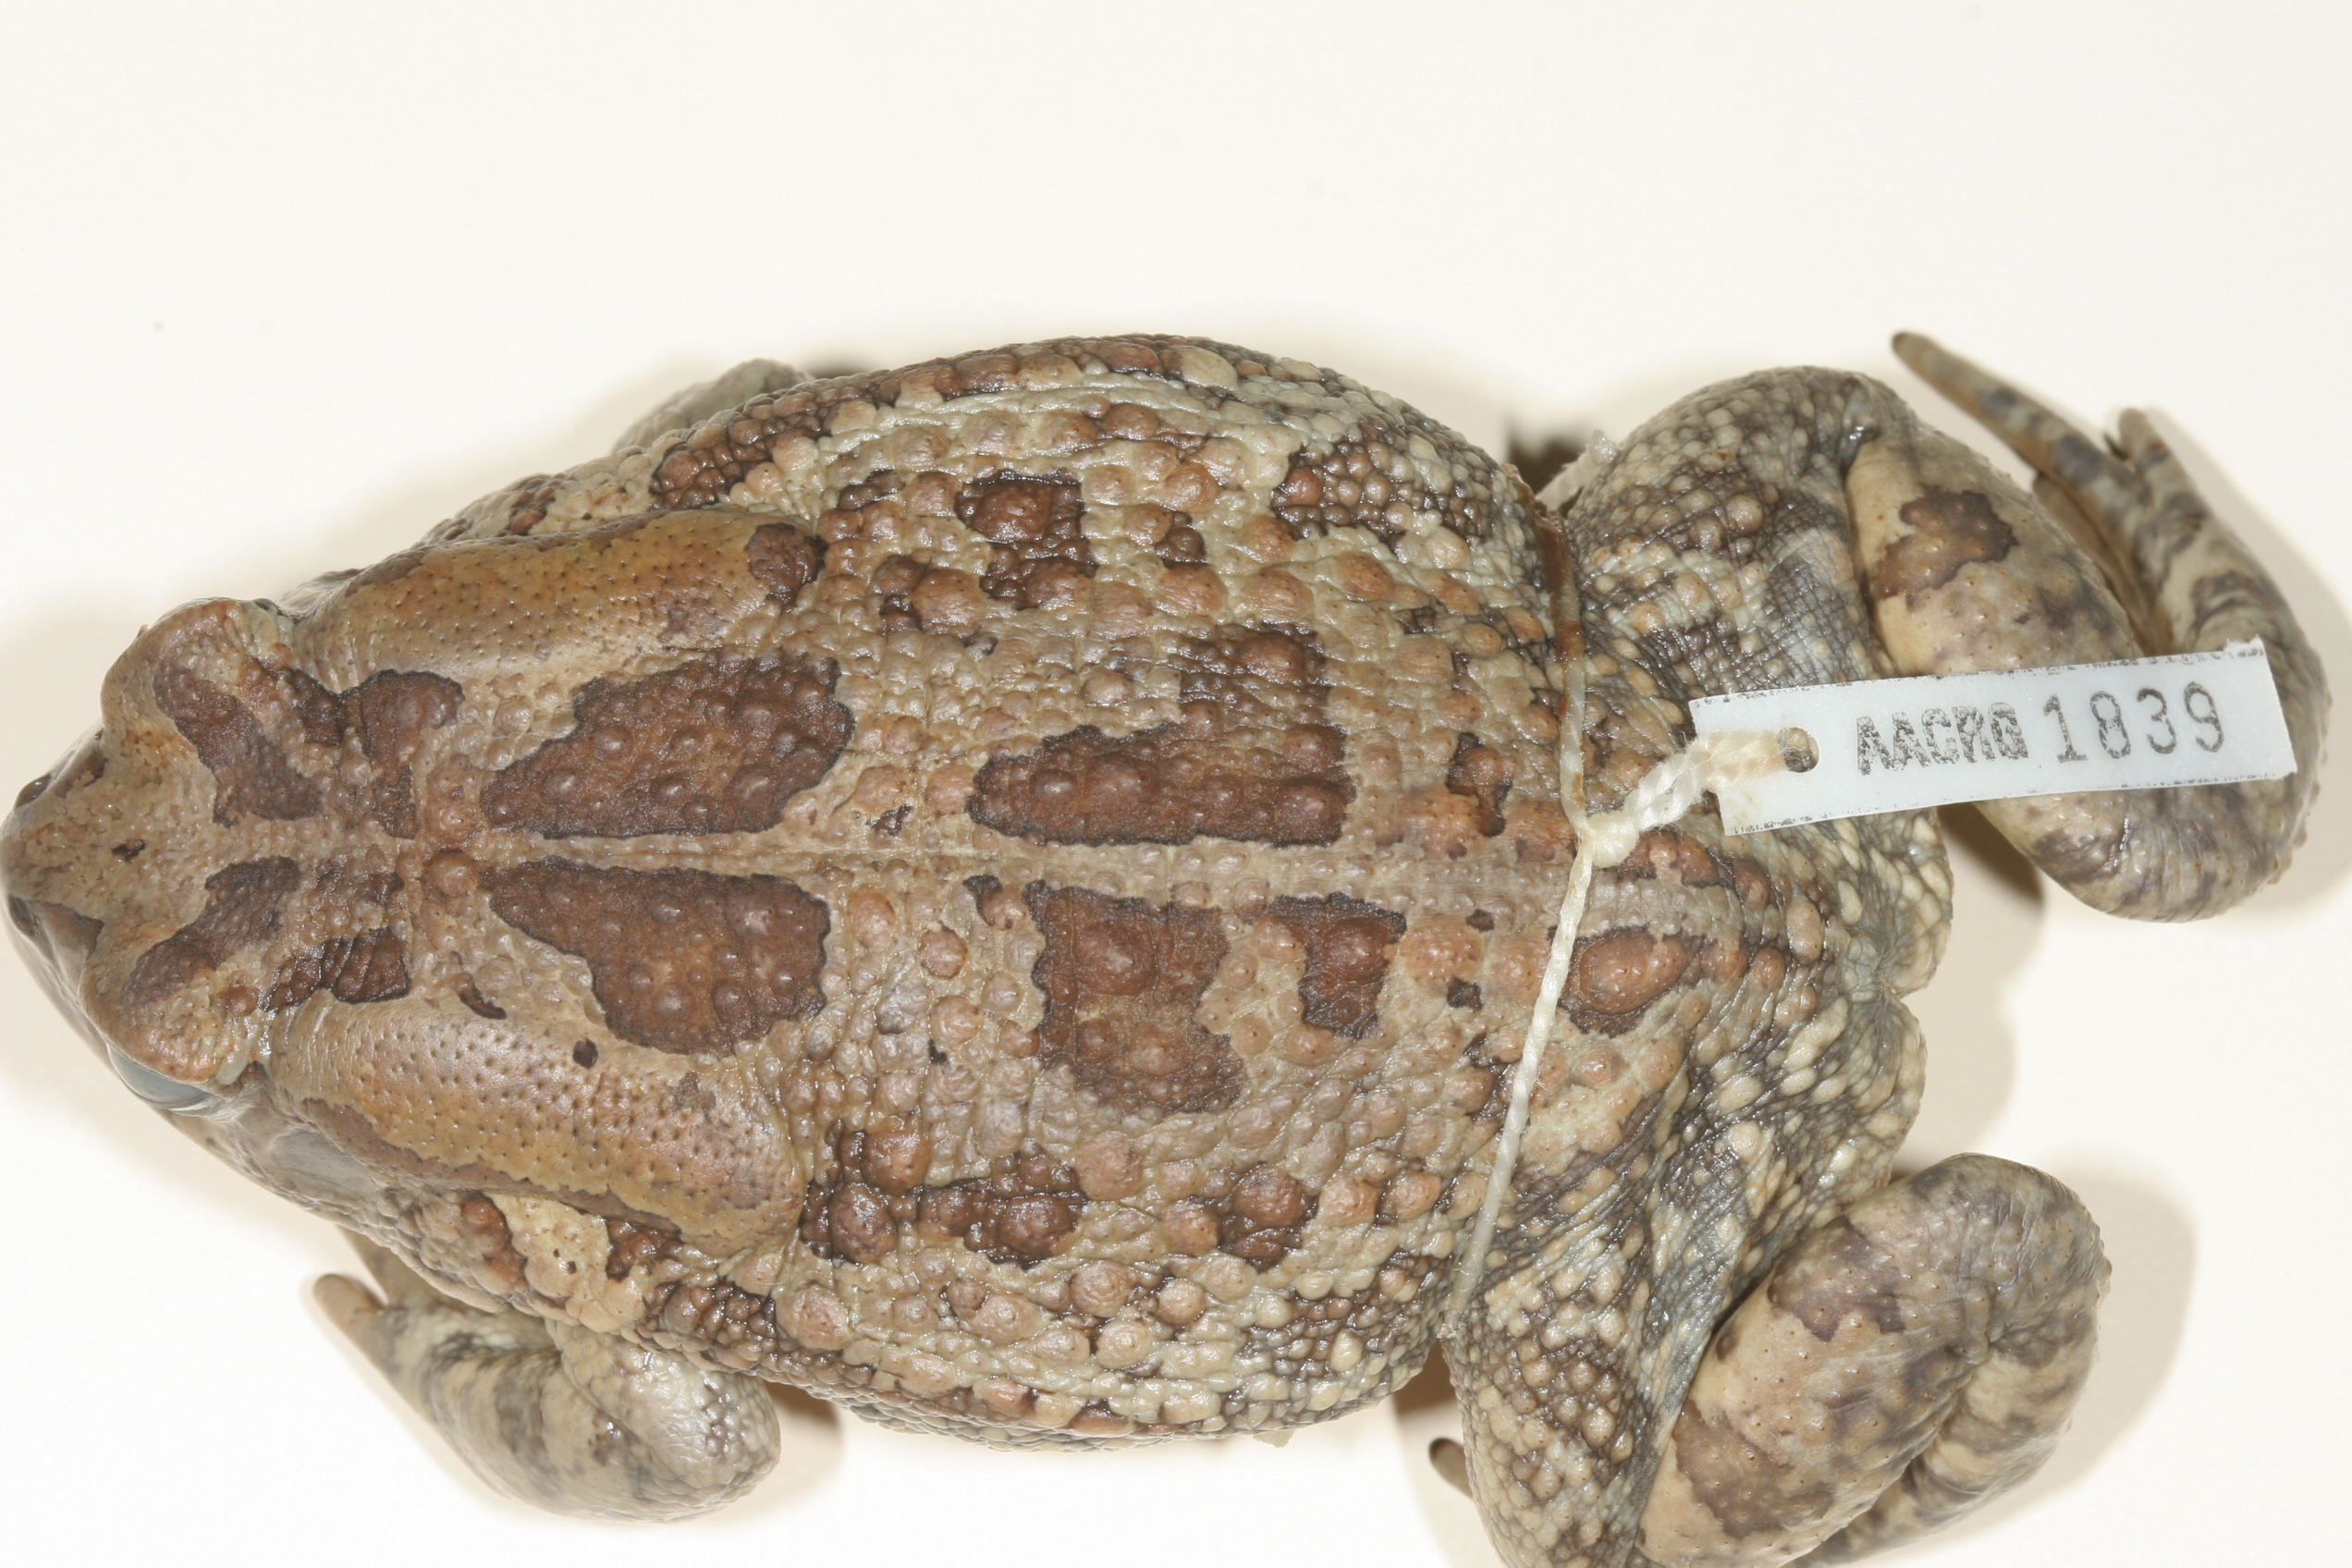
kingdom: Animalia
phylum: Chordata
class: Amphibia
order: Anura
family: Bufonidae
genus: Sclerophrys
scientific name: Sclerophrys garmani
